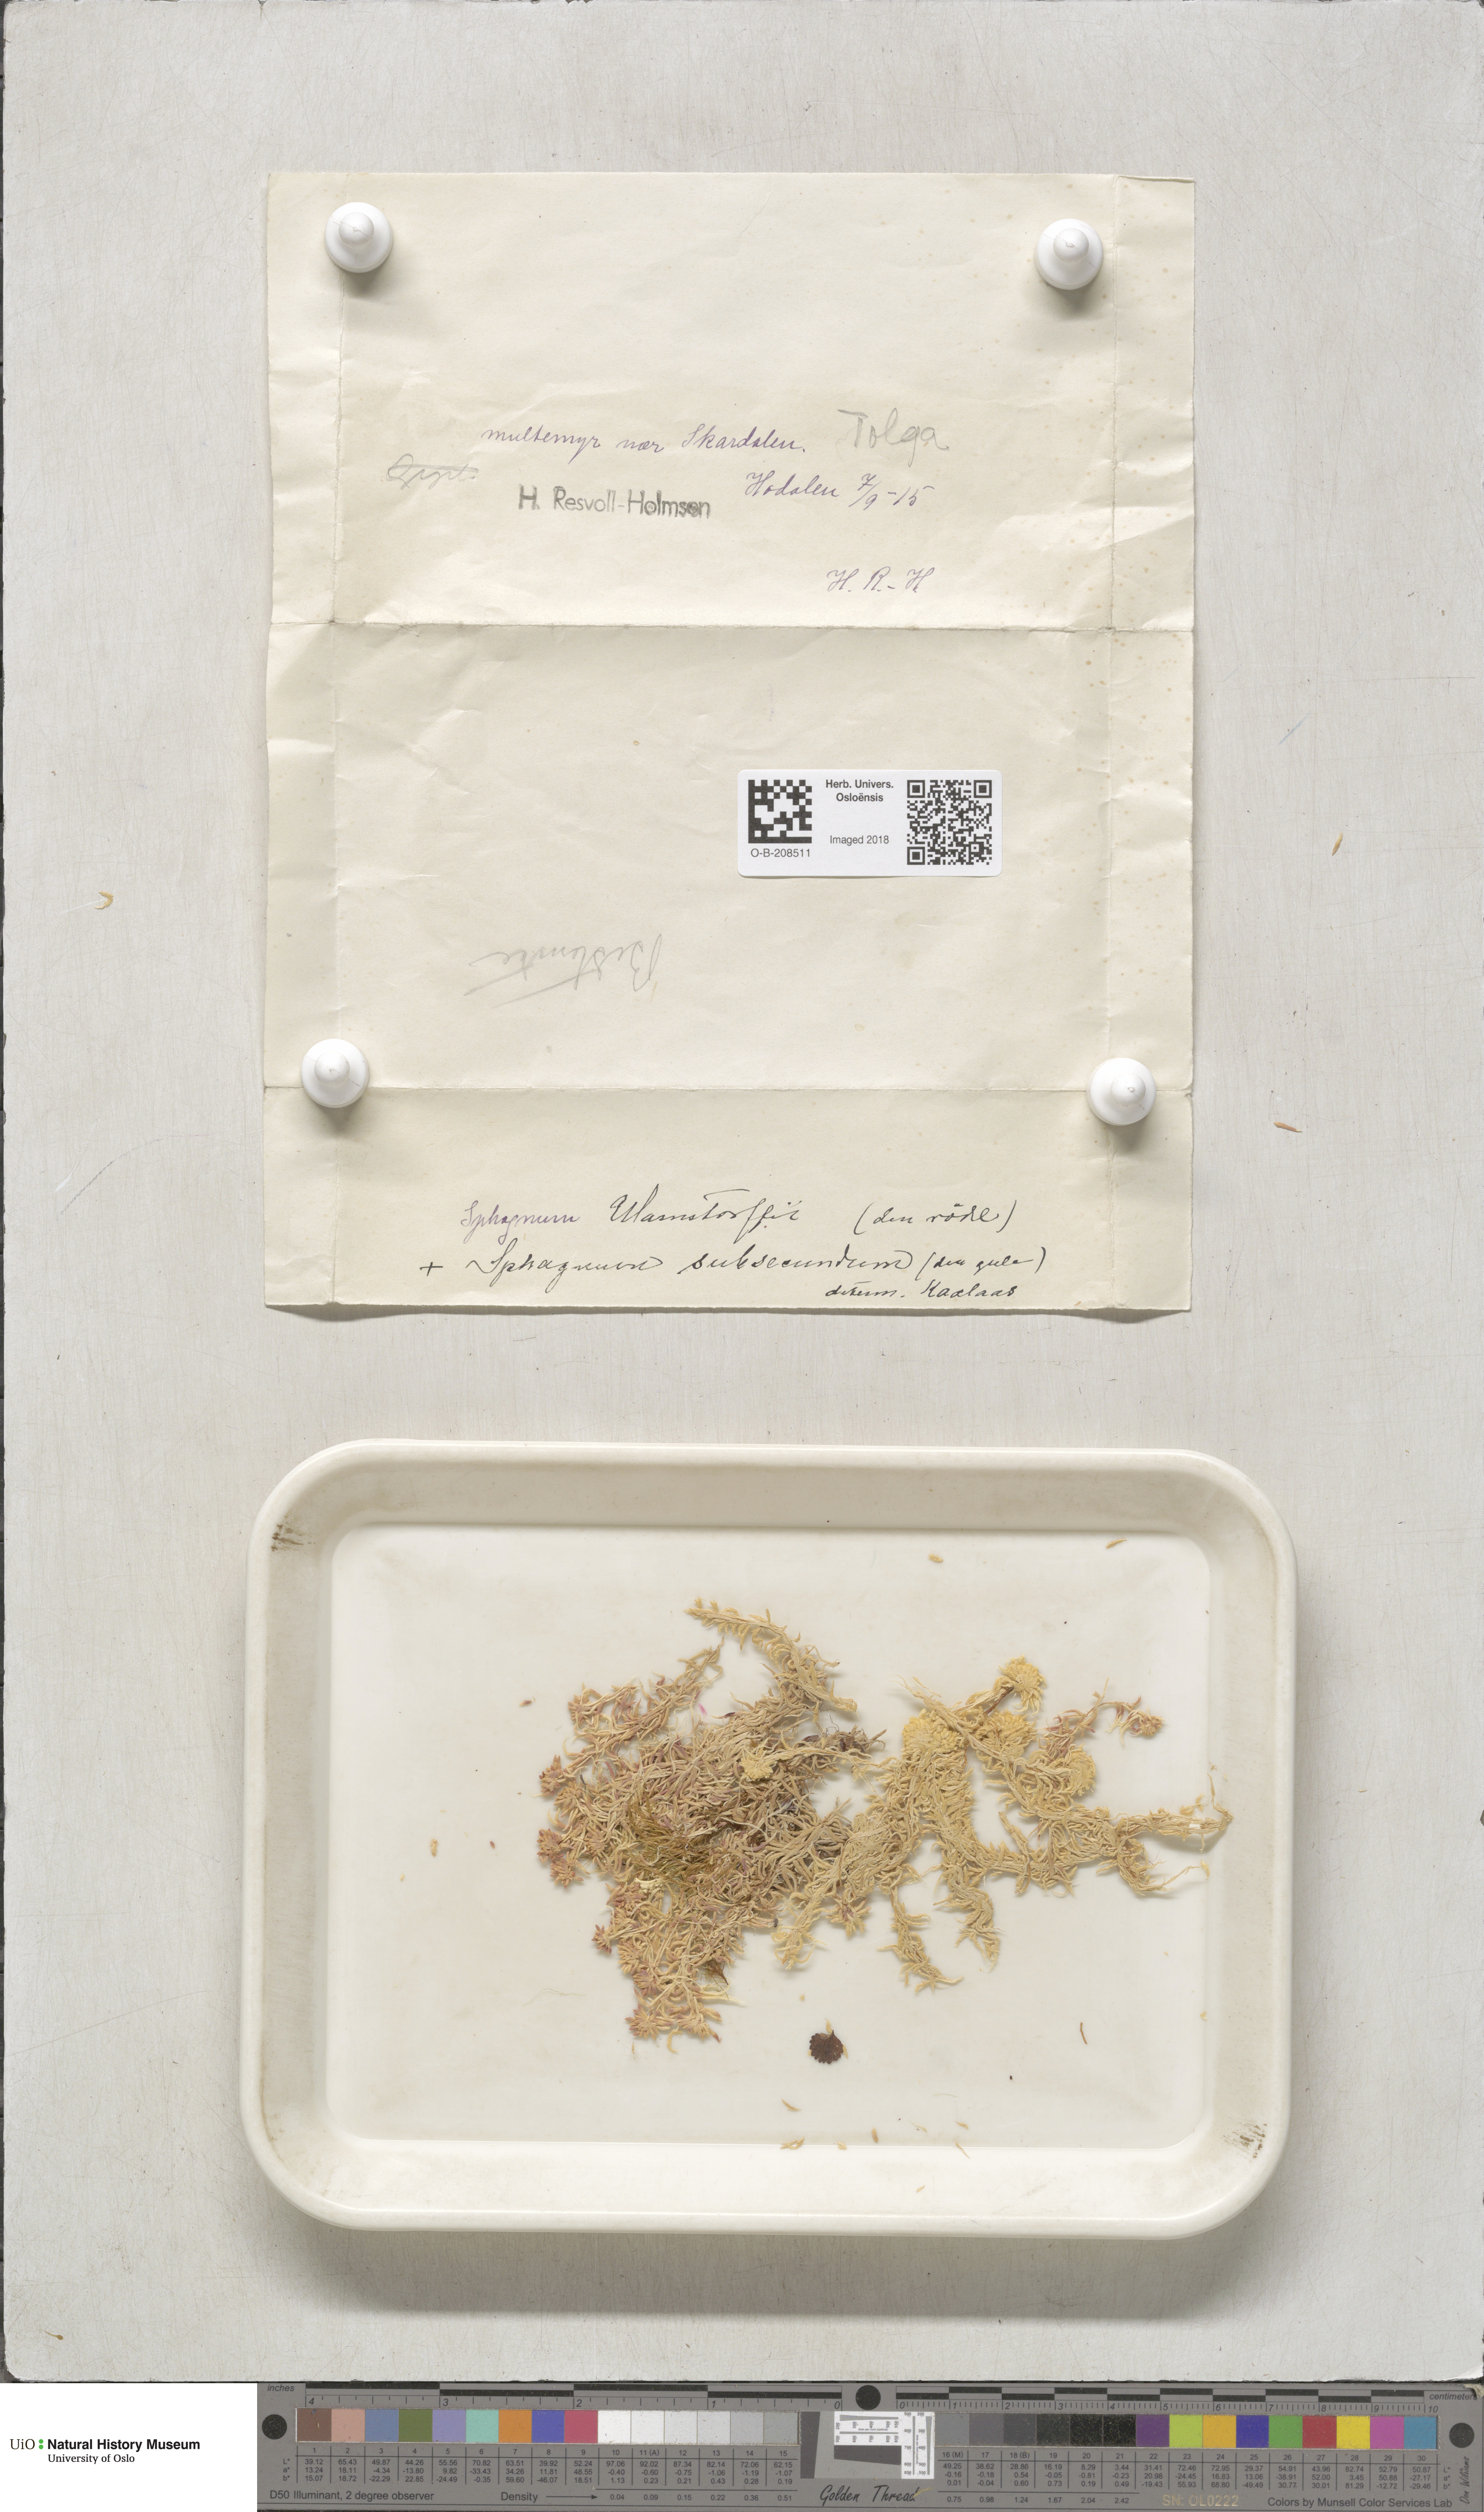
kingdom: Plantae
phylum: Bryophyta
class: Sphagnopsida
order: Sphagnales
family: Sphagnaceae
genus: Sphagnum
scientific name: Sphagnum warnstorfii
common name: Warnstorf's peat moss
